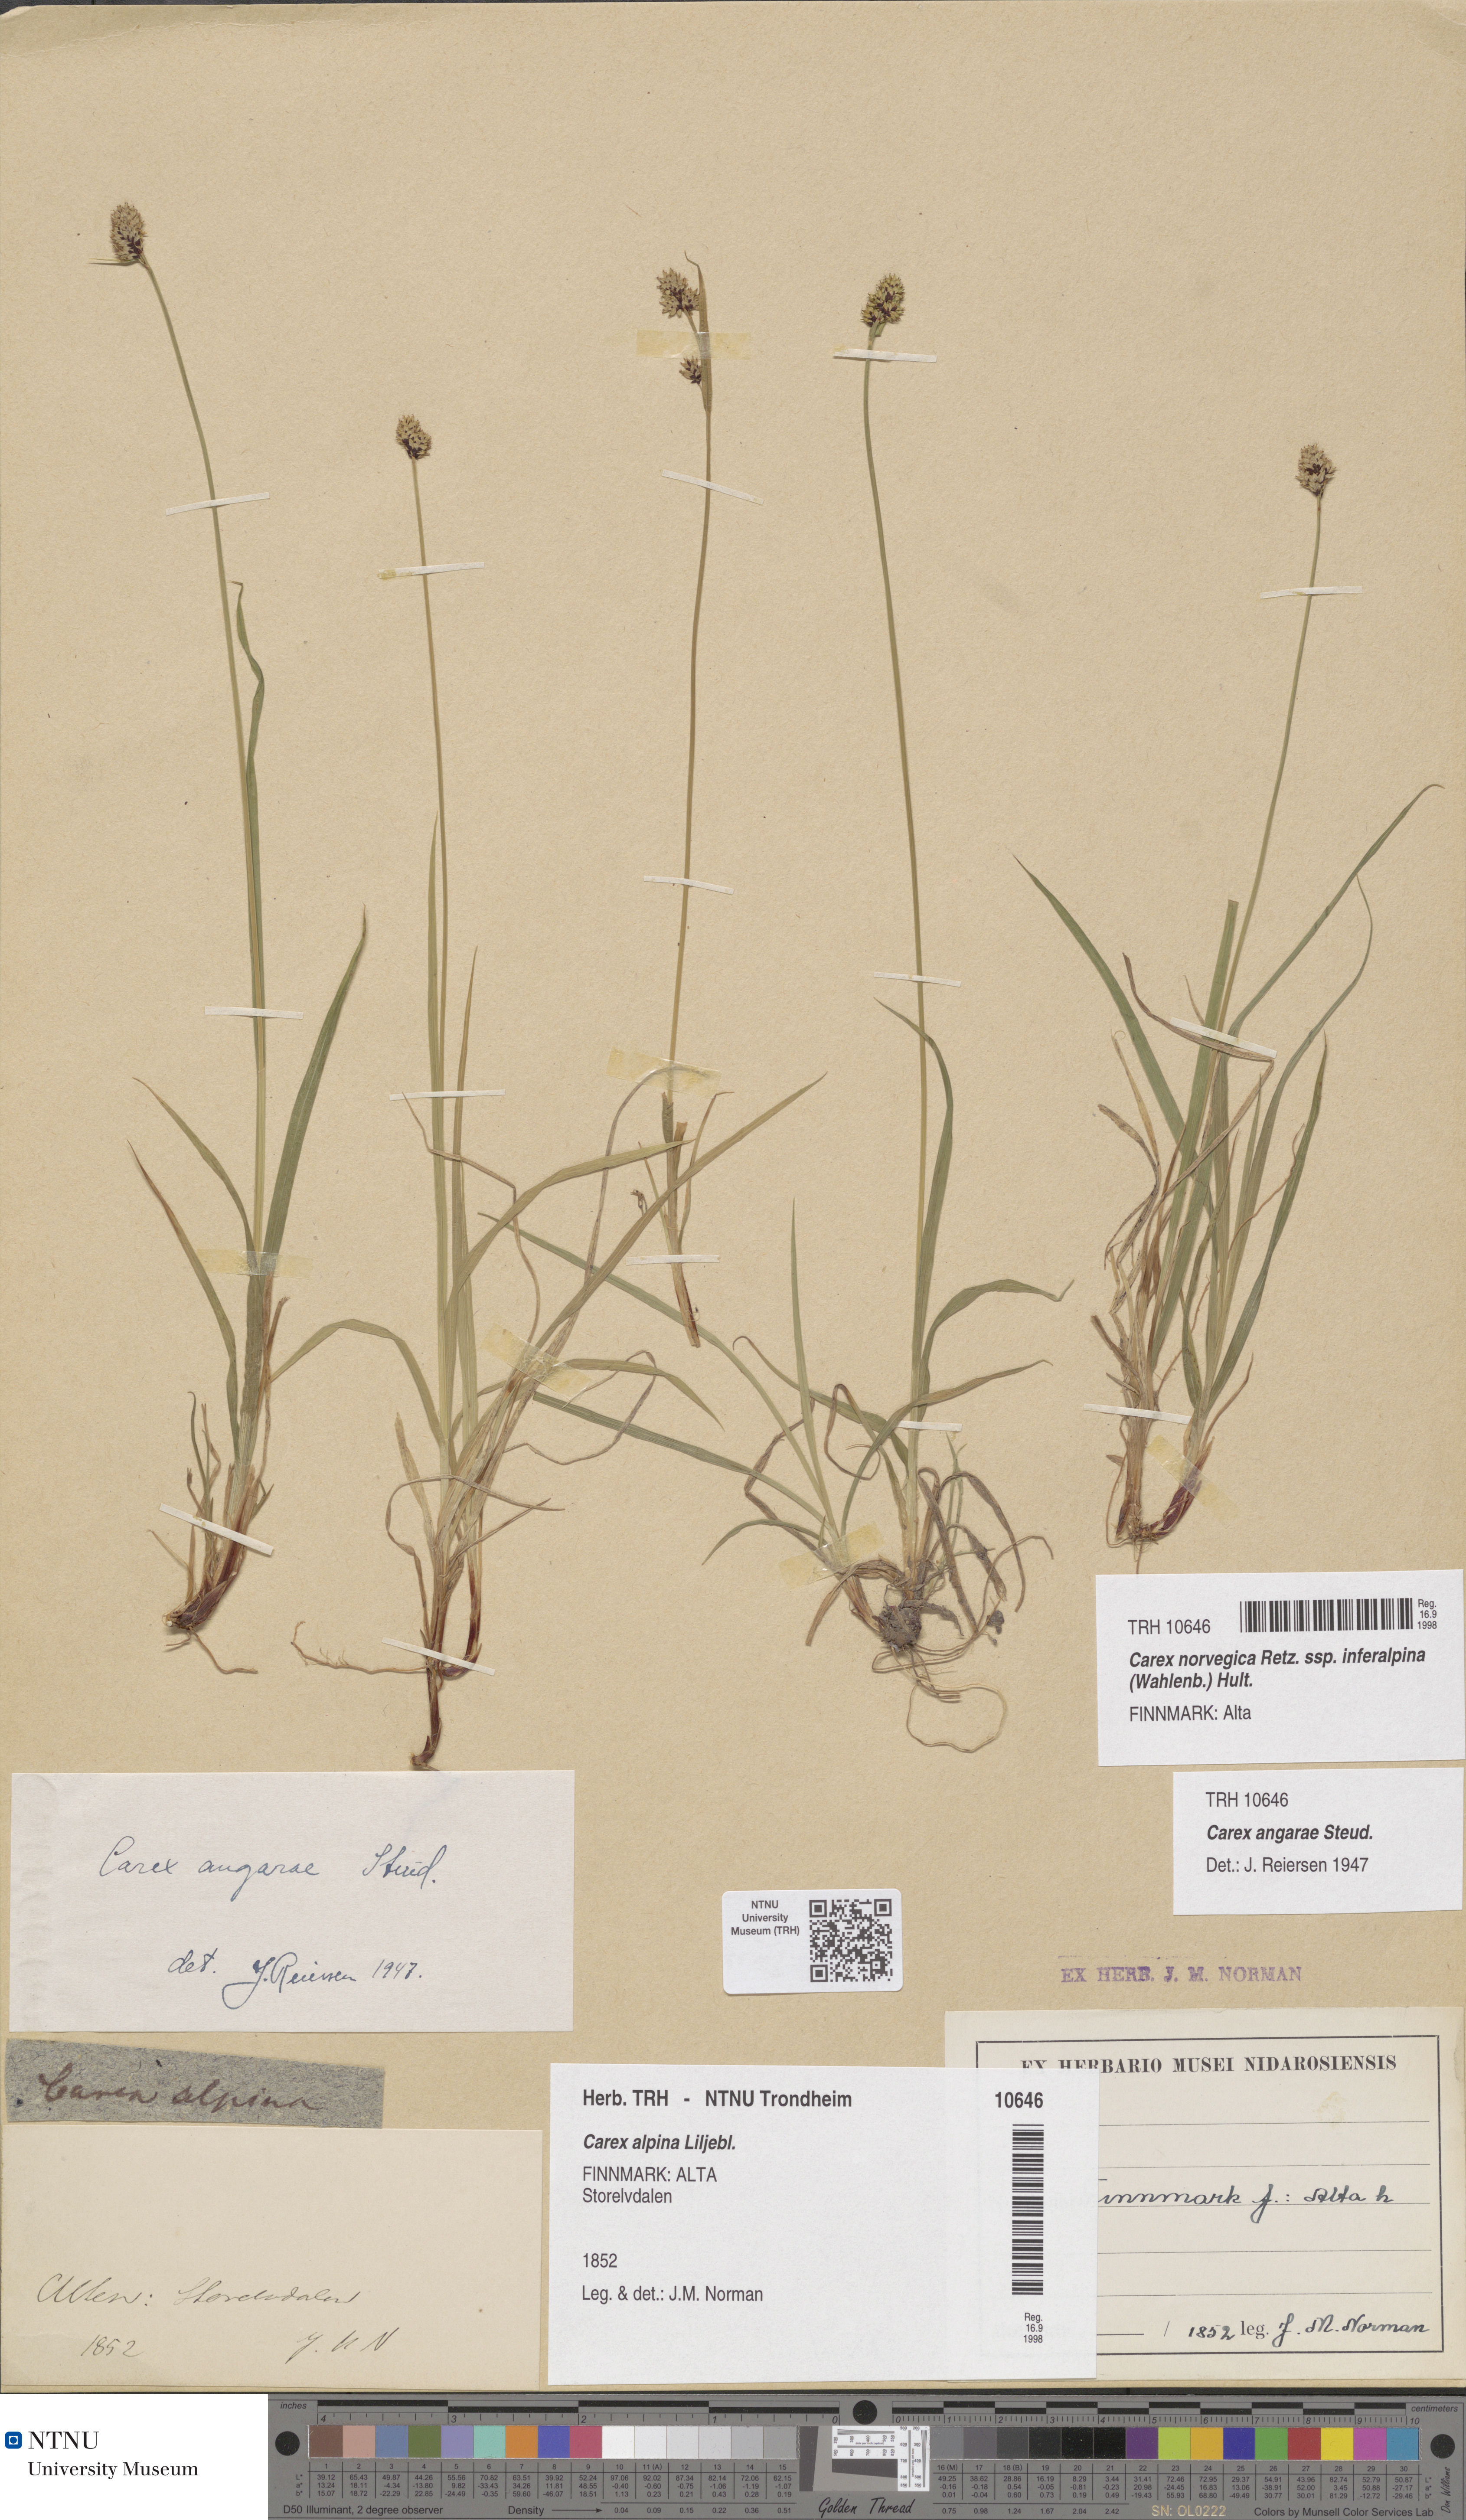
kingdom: Plantae
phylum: Tracheophyta
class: Liliopsida
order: Poales
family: Cyperaceae
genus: Carex
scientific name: Carex media
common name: Alpine sedge
